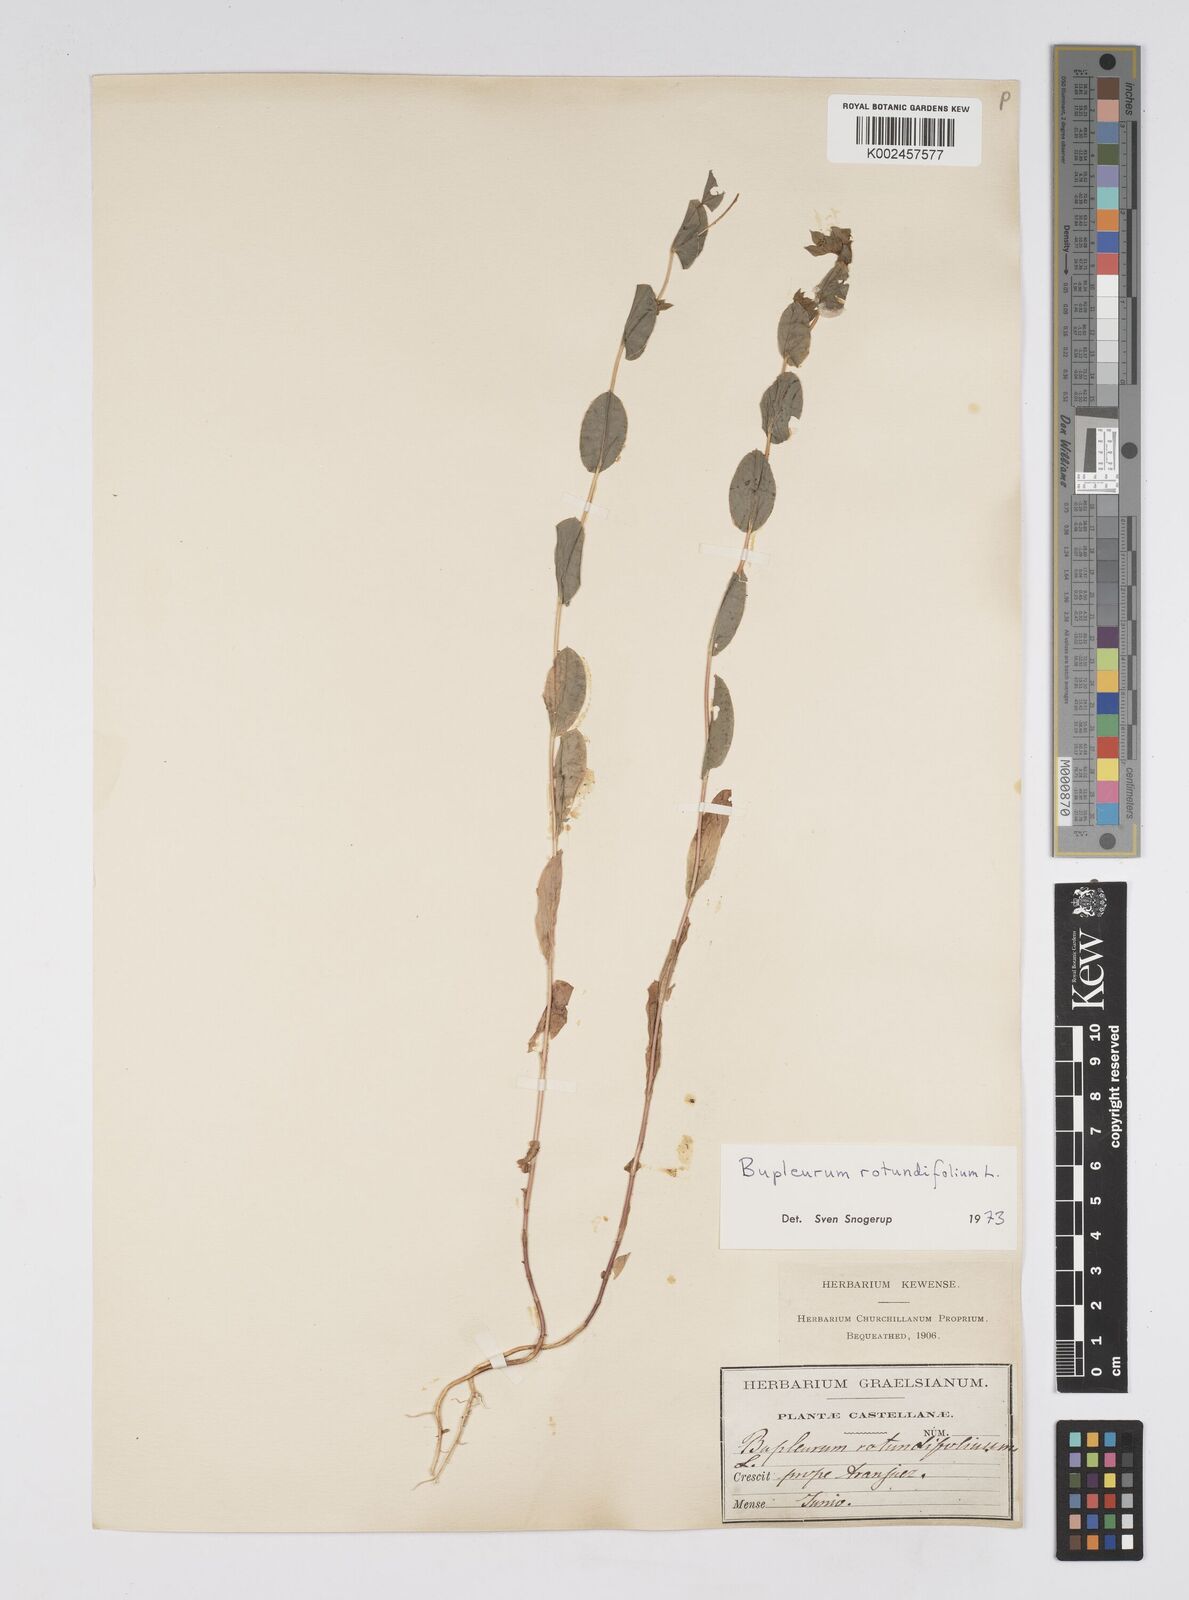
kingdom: Plantae
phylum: Tracheophyta
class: Magnoliopsida
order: Apiales
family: Apiaceae
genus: Bupleurum
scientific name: Bupleurum rotundifolium
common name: Thorow-wax
